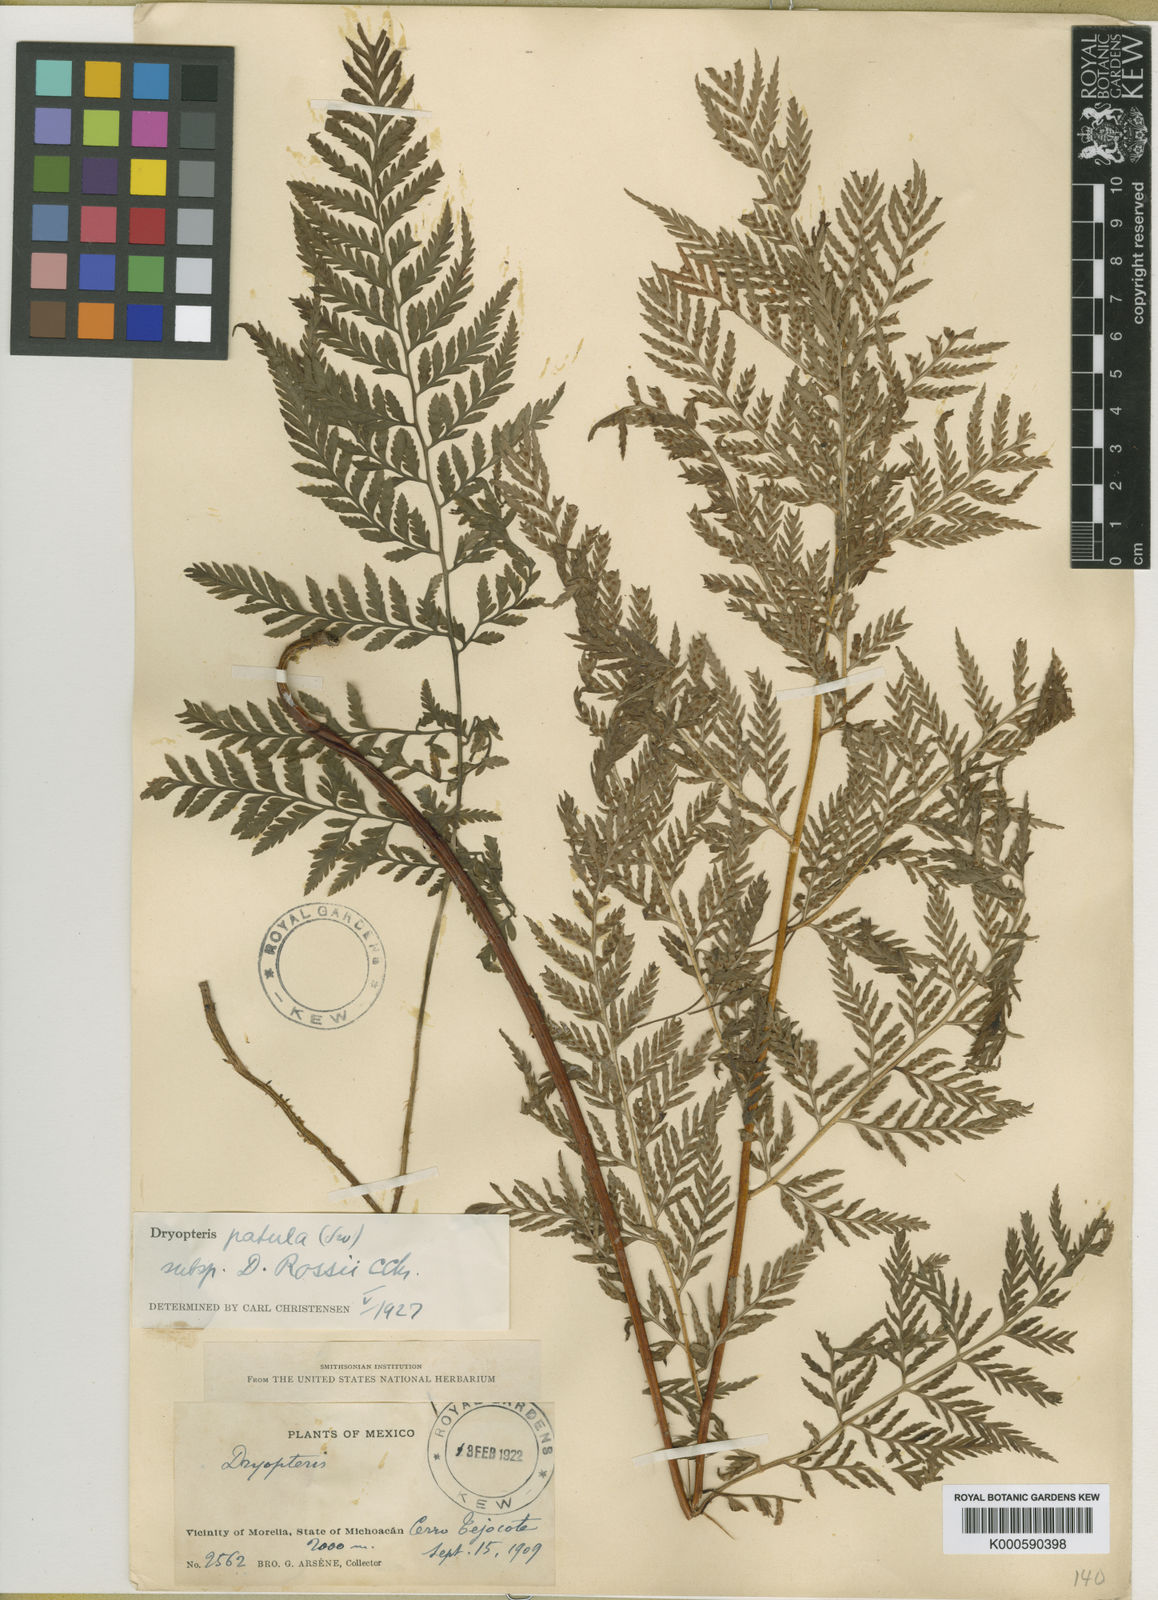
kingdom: Plantae
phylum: Tracheophyta
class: Polypodiopsida
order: Polypodiales
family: Dryopteridaceae
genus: Dryopteris
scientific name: Dryopteris patula
